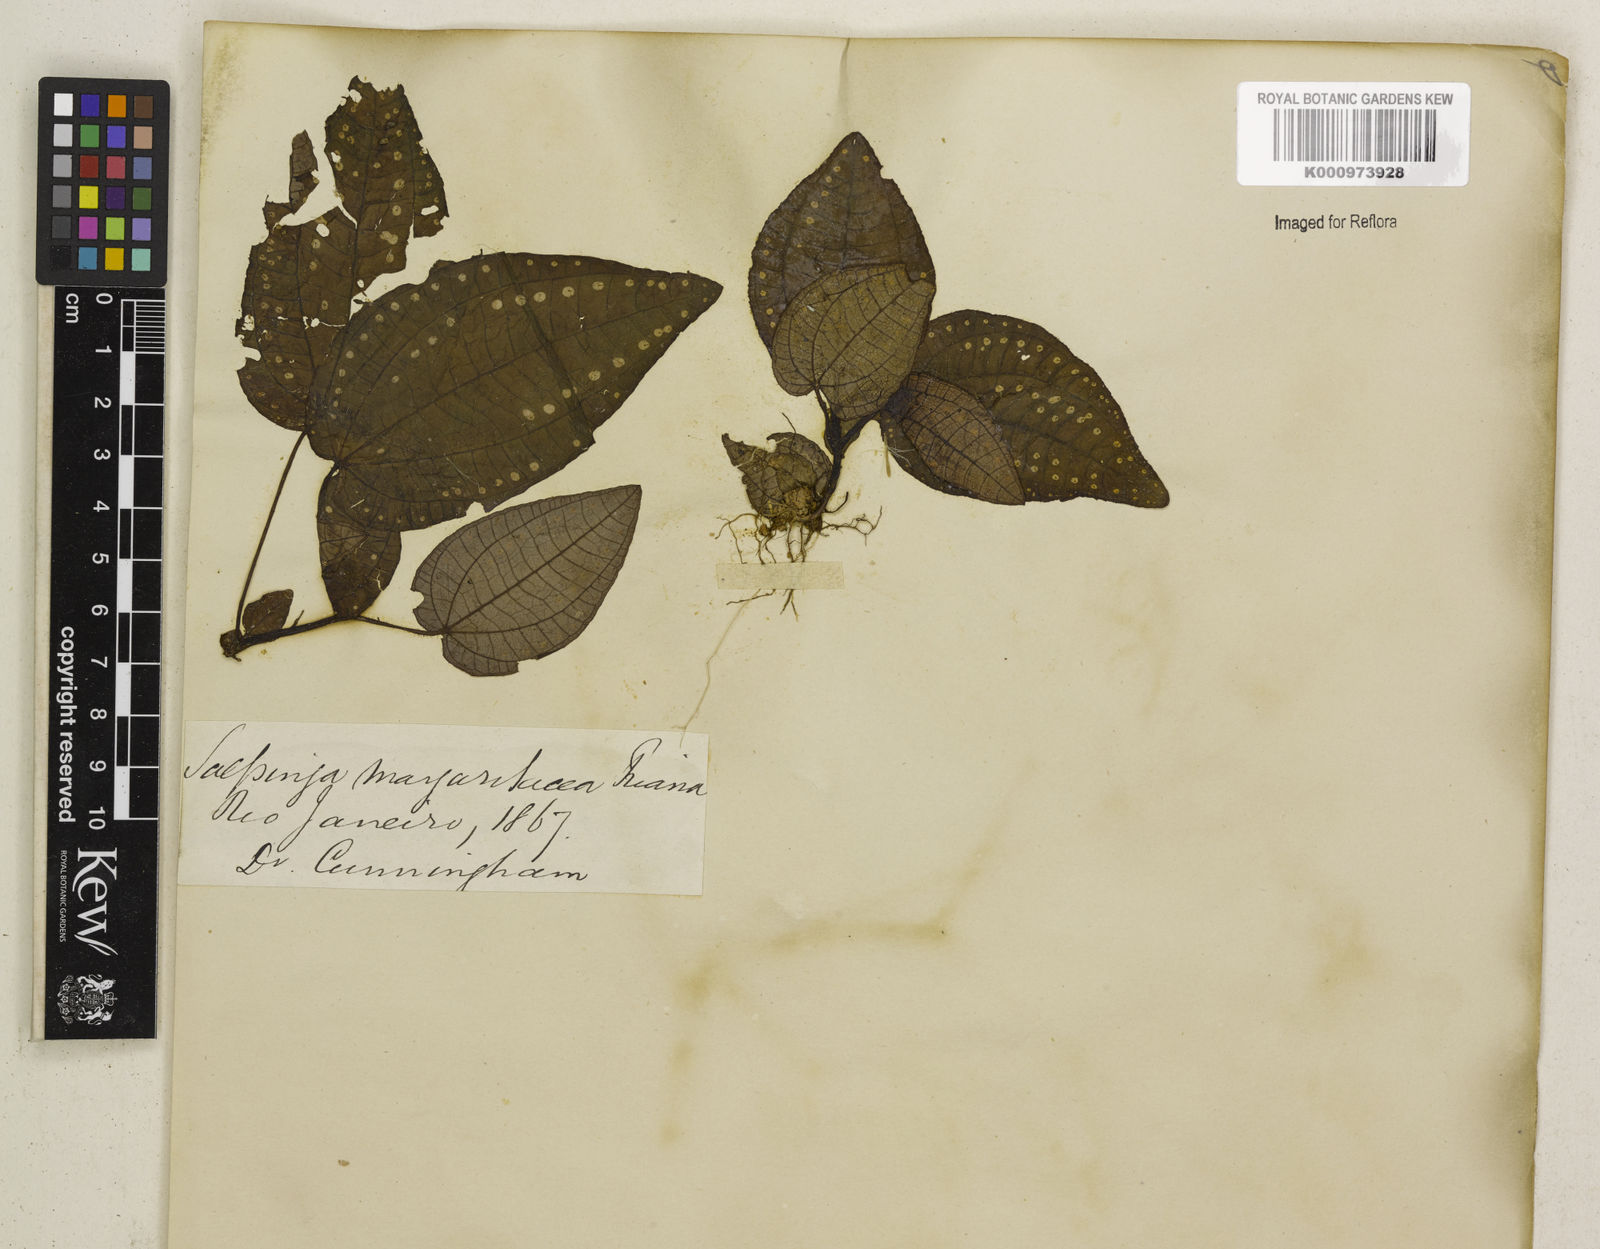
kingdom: Plantae
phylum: Tracheophyta
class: Magnoliopsida
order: Myrtales
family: Melastomataceae
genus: Salpinga
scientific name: Salpinga margaritacea
